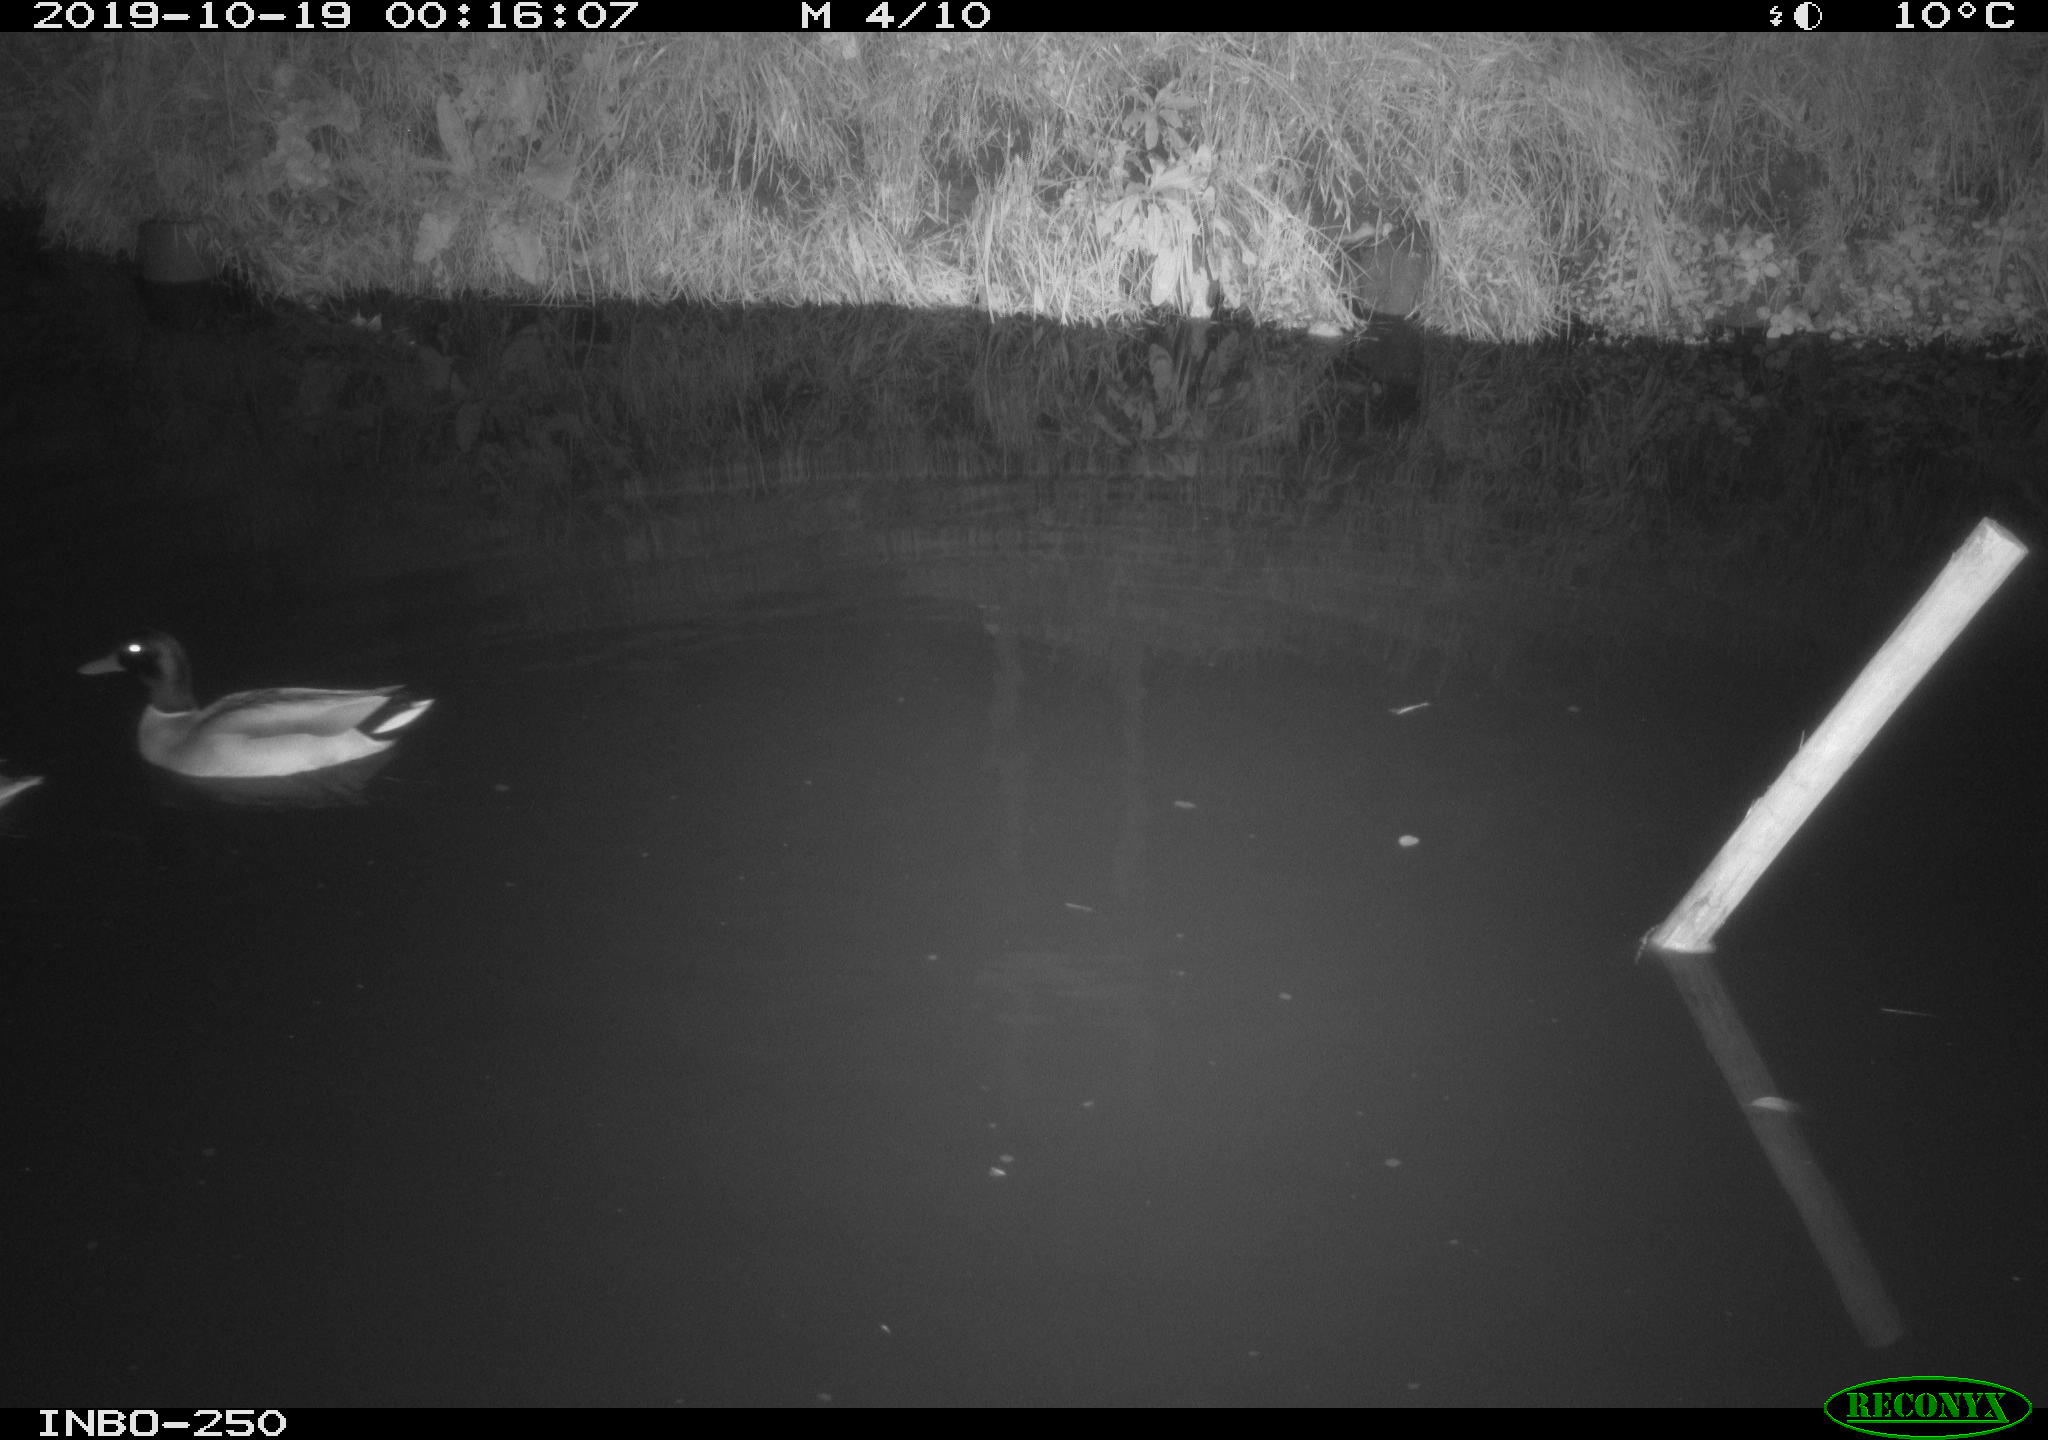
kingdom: Animalia
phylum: Chordata
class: Aves
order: Anseriformes
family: Anatidae
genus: Anas
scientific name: Anas platyrhynchos
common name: Mallard
